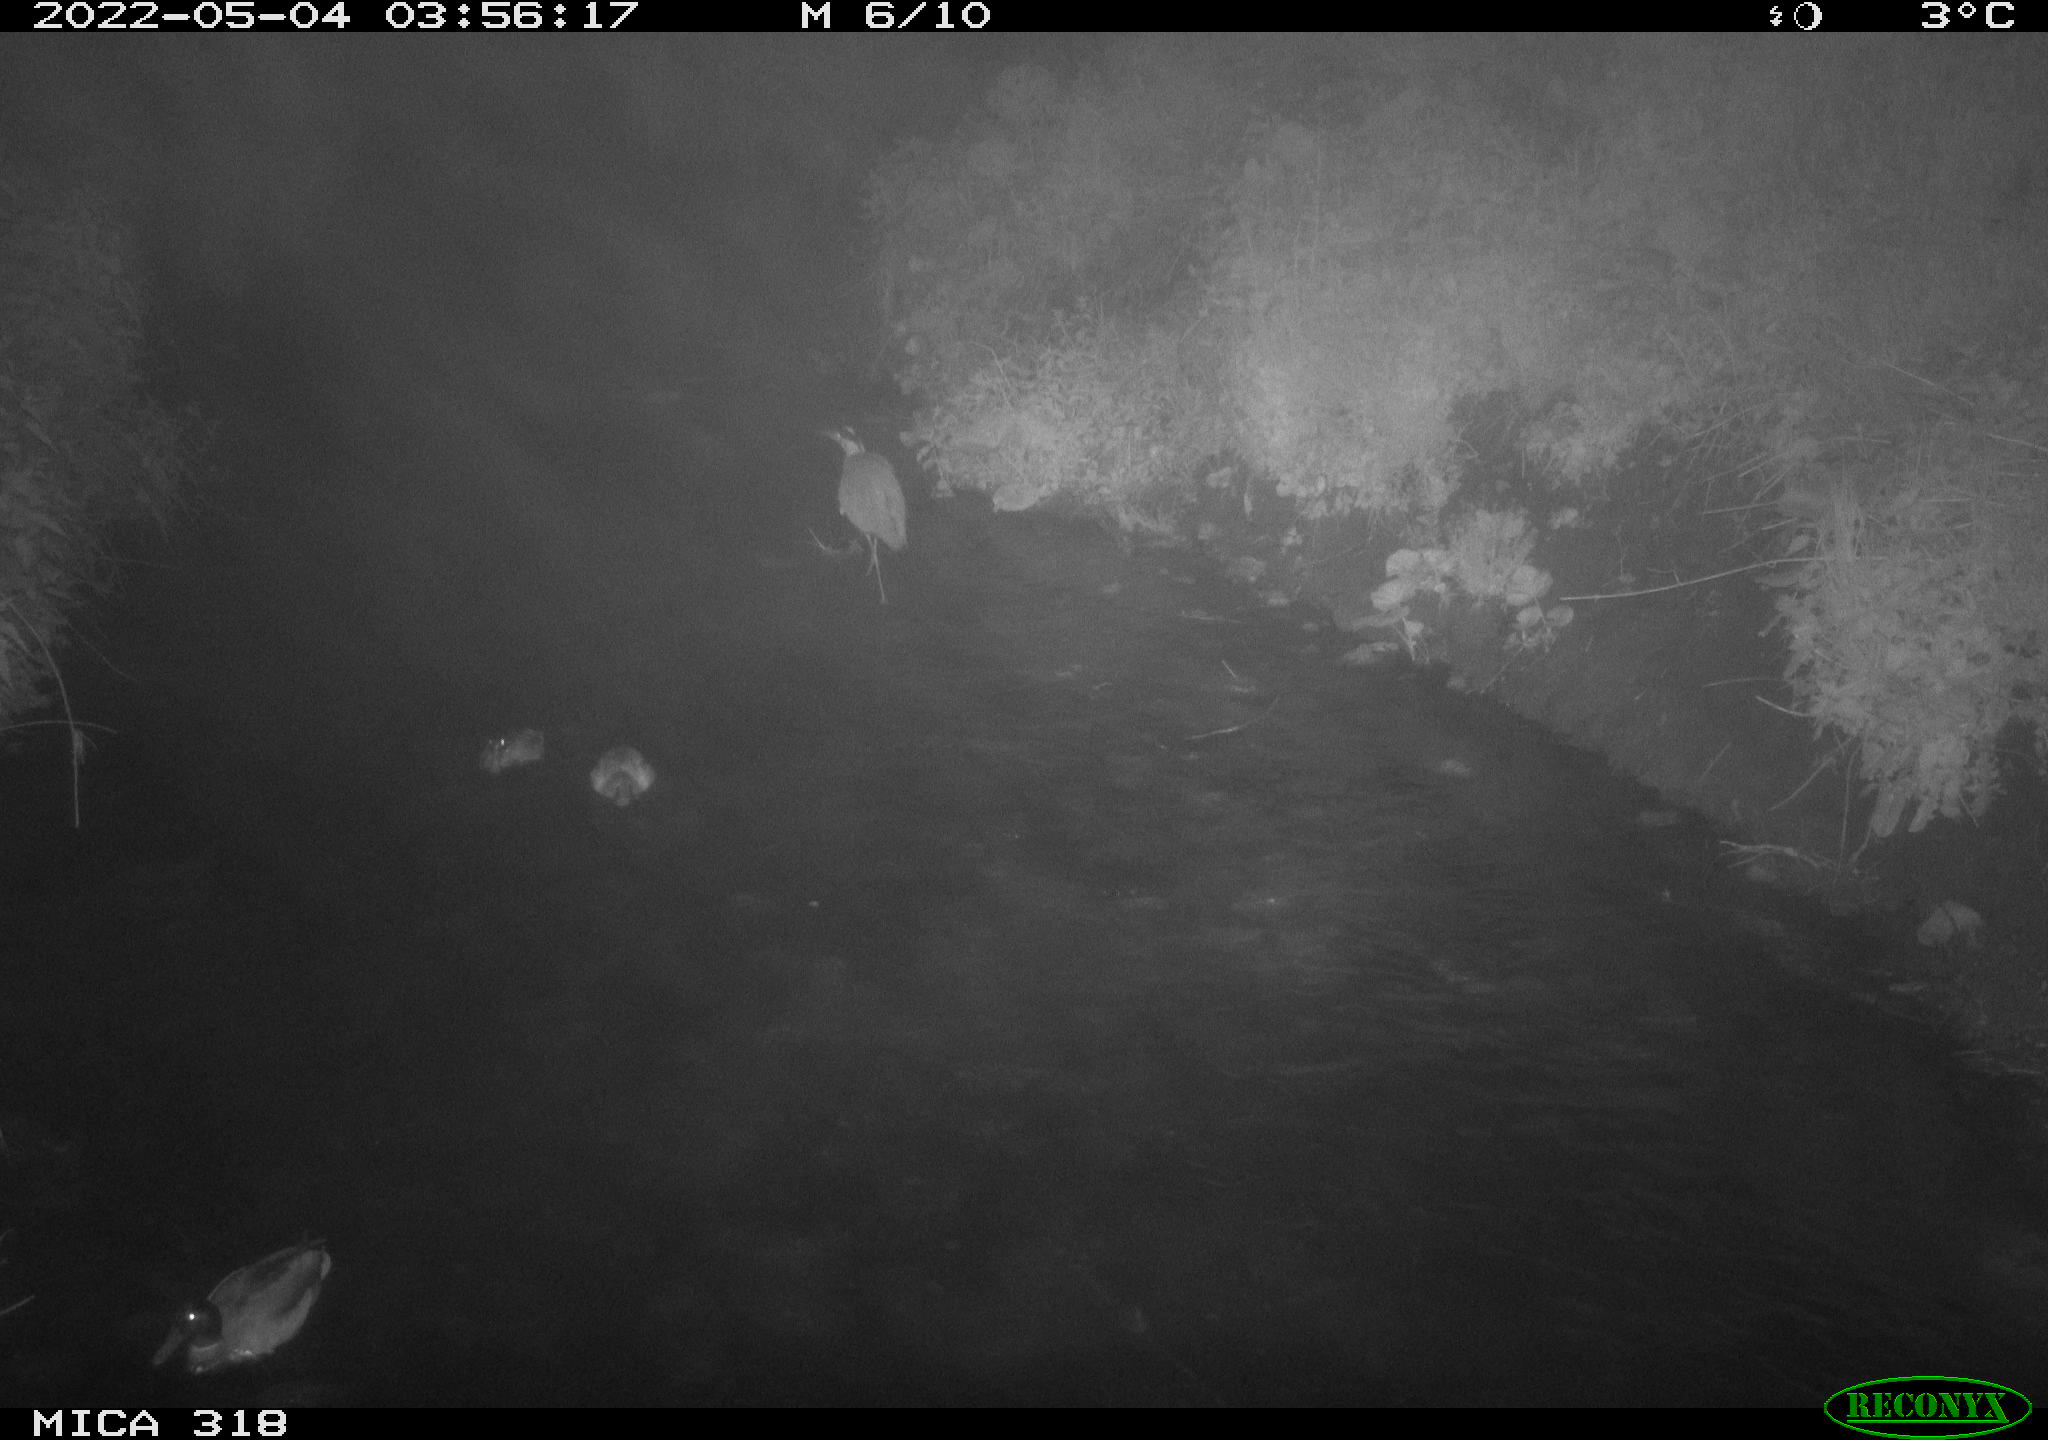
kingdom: Animalia
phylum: Chordata
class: Aves
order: Pelecaniformes
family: Ardeidae
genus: Ardea
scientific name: Ardea
